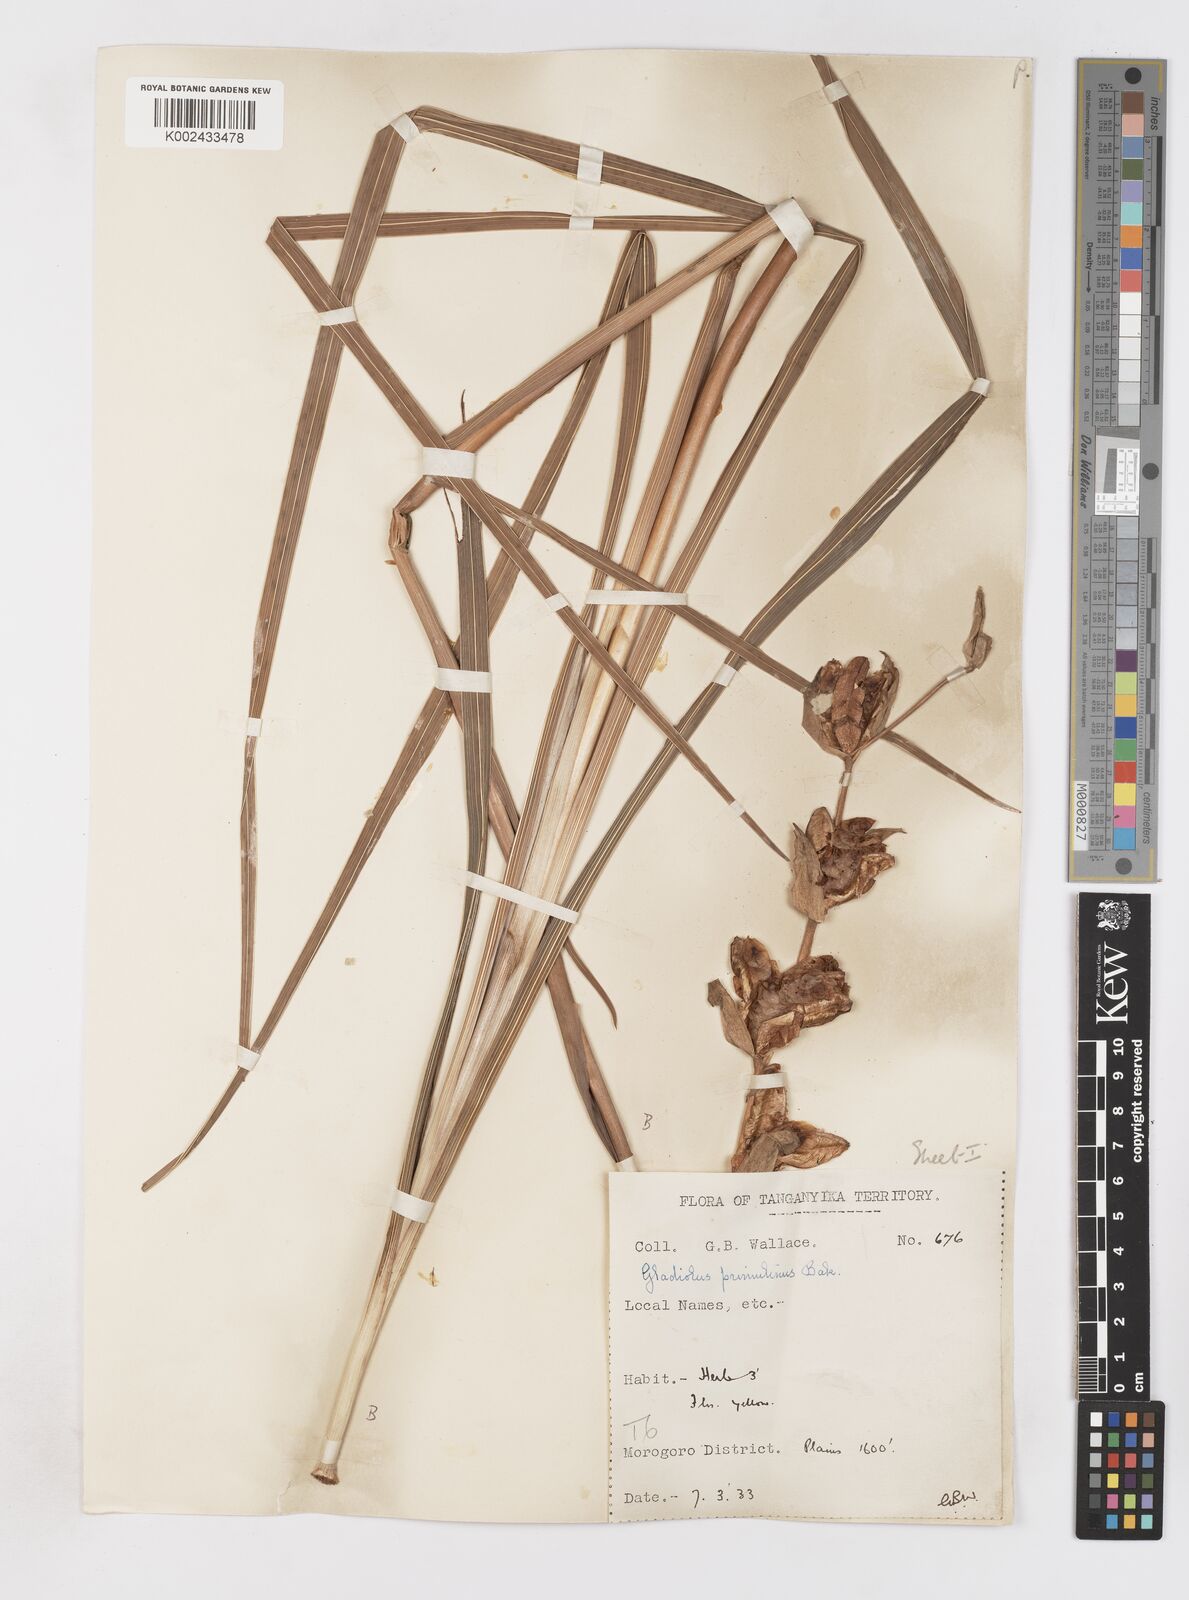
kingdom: Plantae
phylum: Tracheophyta
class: Liliopsida
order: Asparagales
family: Iridaceae
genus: Gladiolus
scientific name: Gladiolus dalenii
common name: Cornflag
